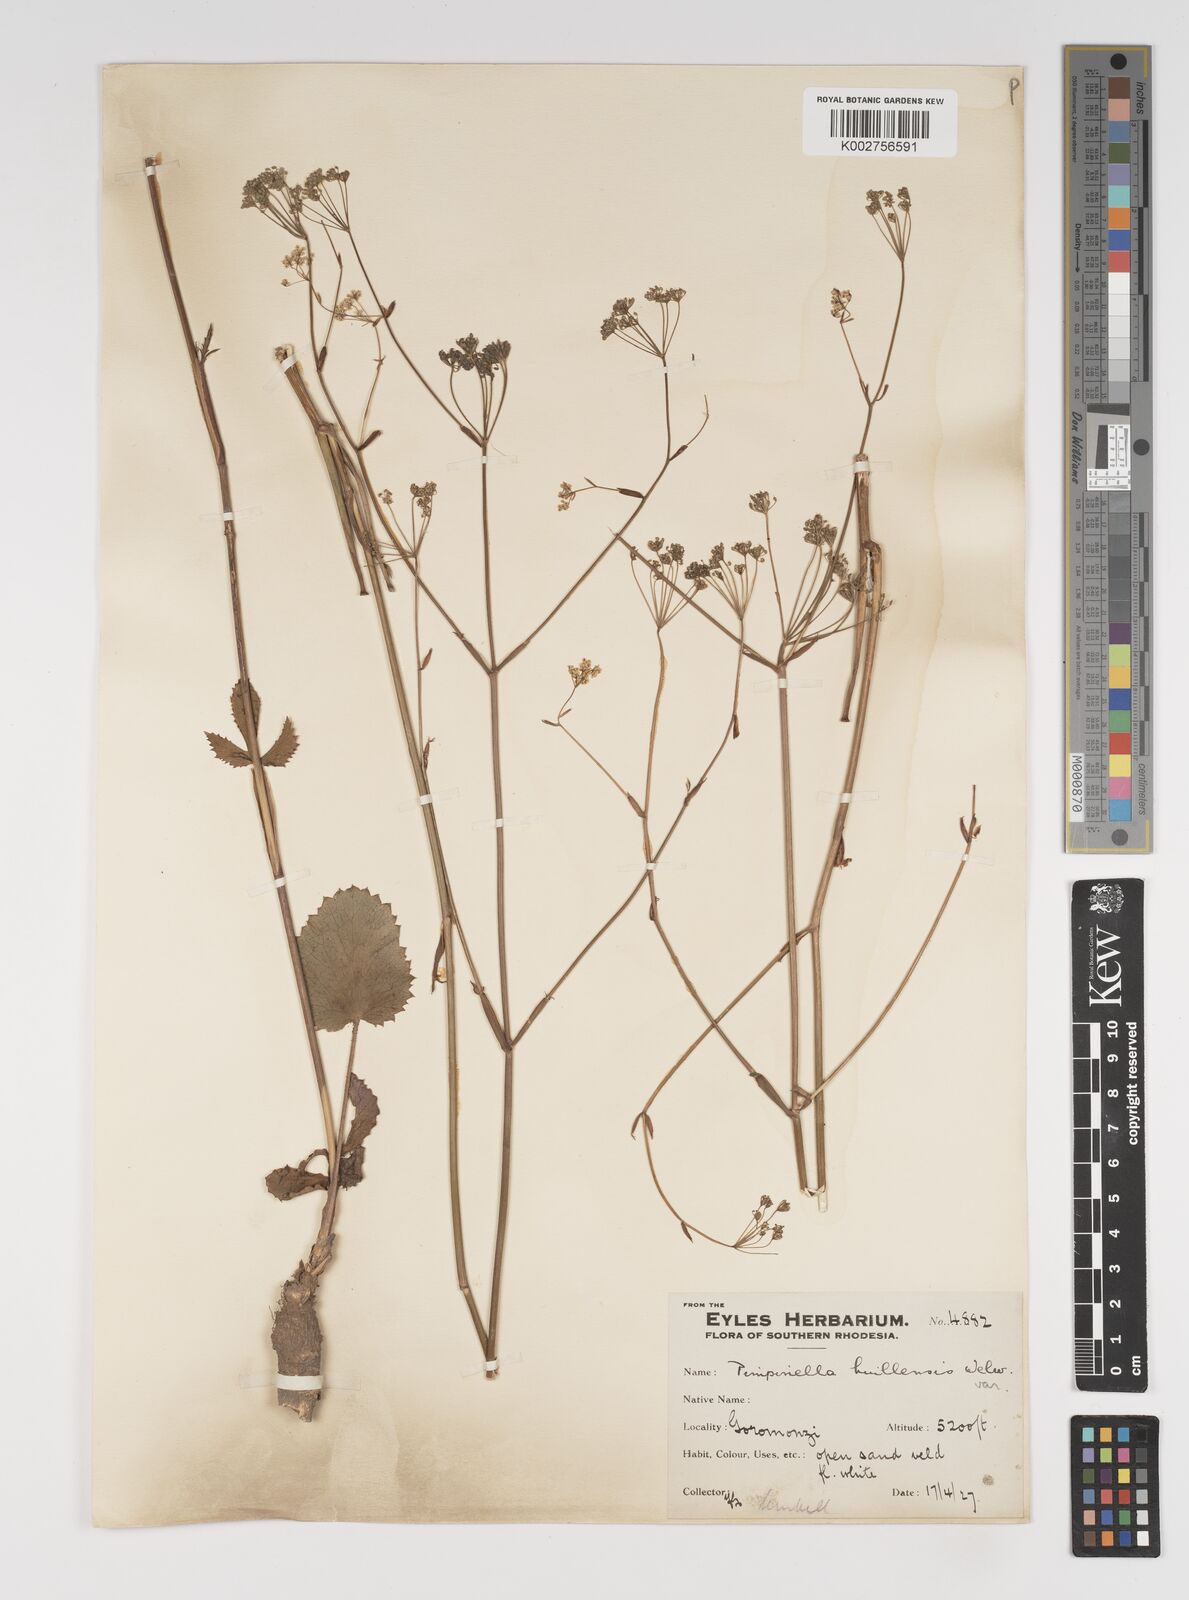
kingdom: Plantae
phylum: Tracheophyta
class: Magnoliopsida
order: Apiales
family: Apiaceae
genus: Pimpinella
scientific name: Pimpinella huillensis
